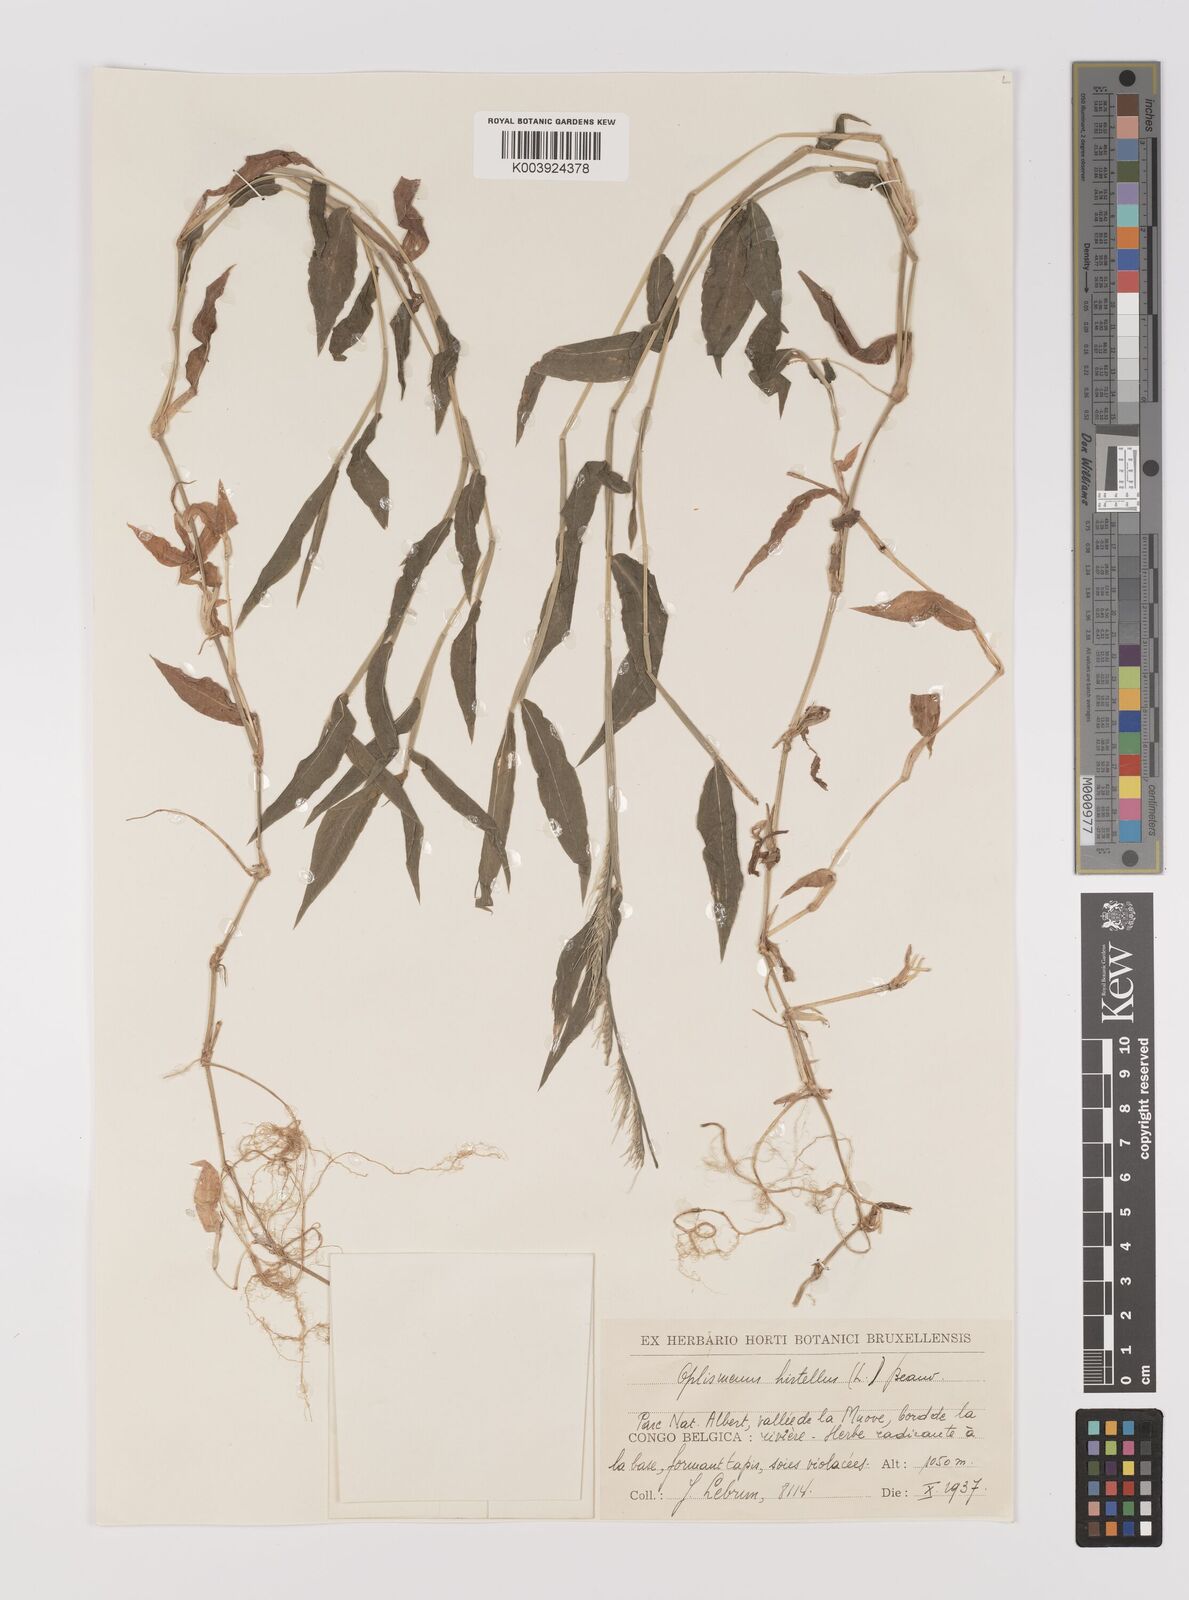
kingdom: Plantae
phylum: Tracheophyta
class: Liliopsida
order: Poales
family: Poaceae
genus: Oplismenus
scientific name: Oplismenus hirtellus
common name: Basketgrass
